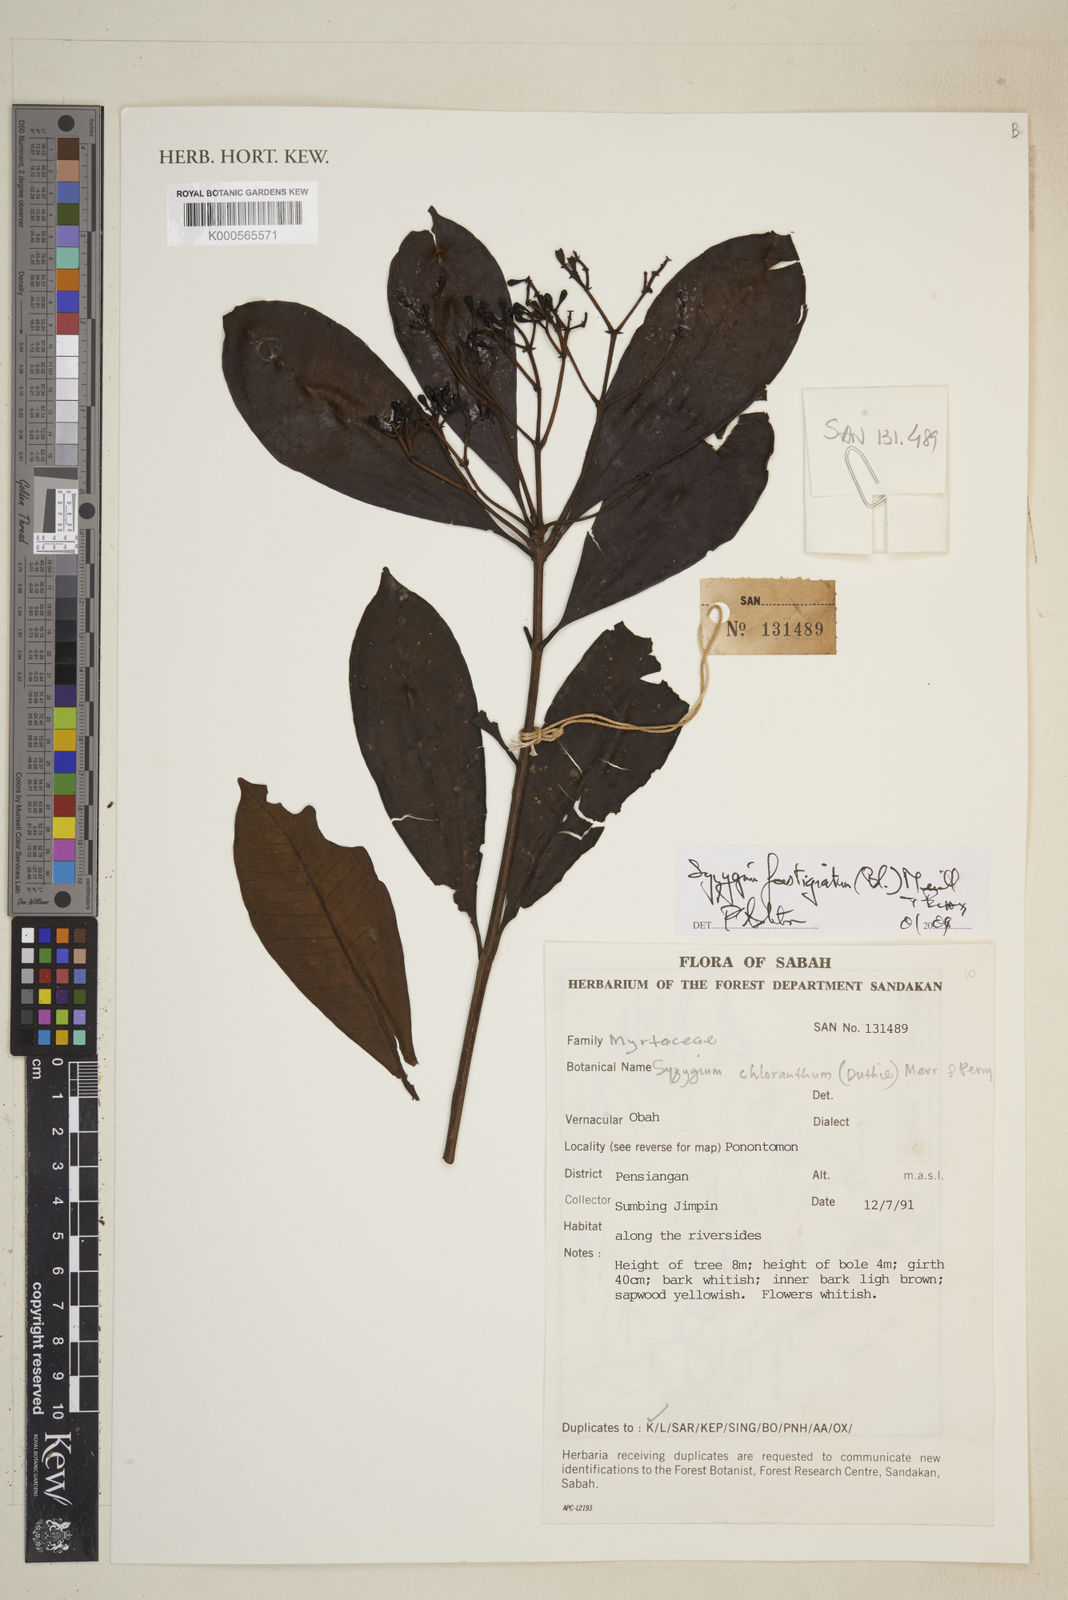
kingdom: Plantae
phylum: Tracheophyta
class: Magnoliopsida
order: Myrtales
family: Myrtaceae
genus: Syzygium
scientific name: Syzygium fastigiatum
